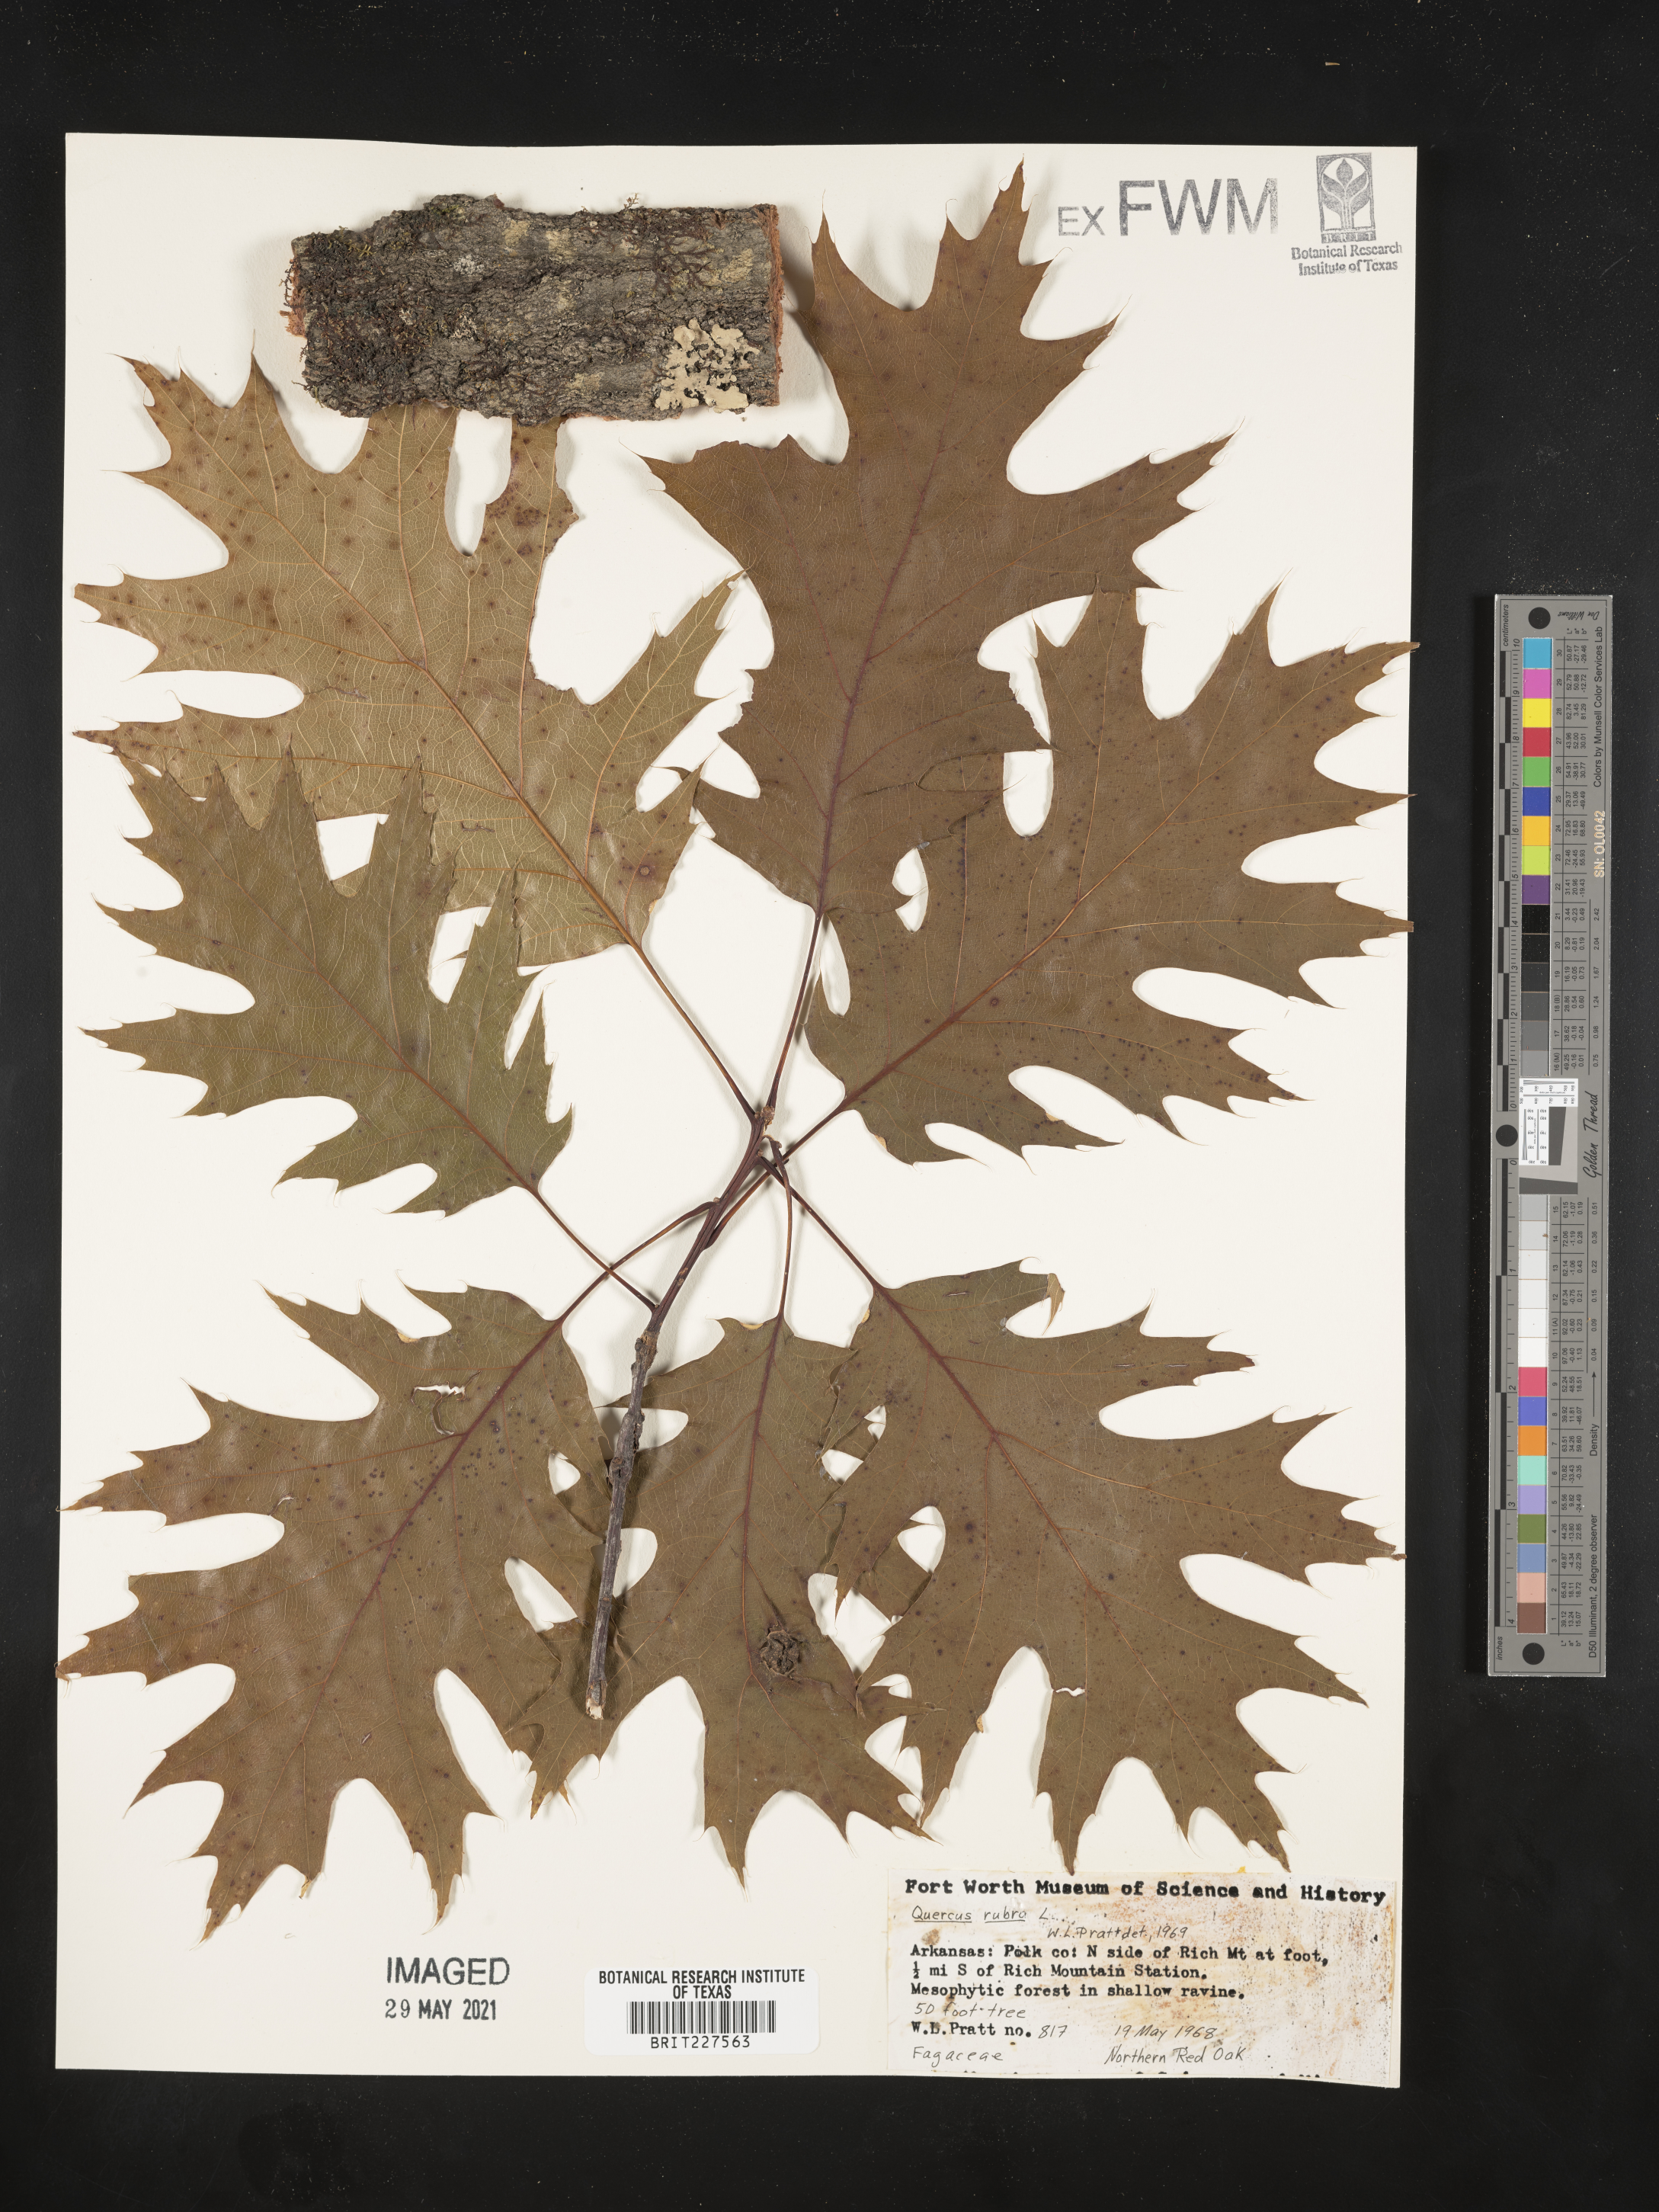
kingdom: Plantae
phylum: Tracheophyta
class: Magnoliopsida
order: Fagales
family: Fagaceae
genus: Quercus
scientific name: Quercus rubra
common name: Red oak
